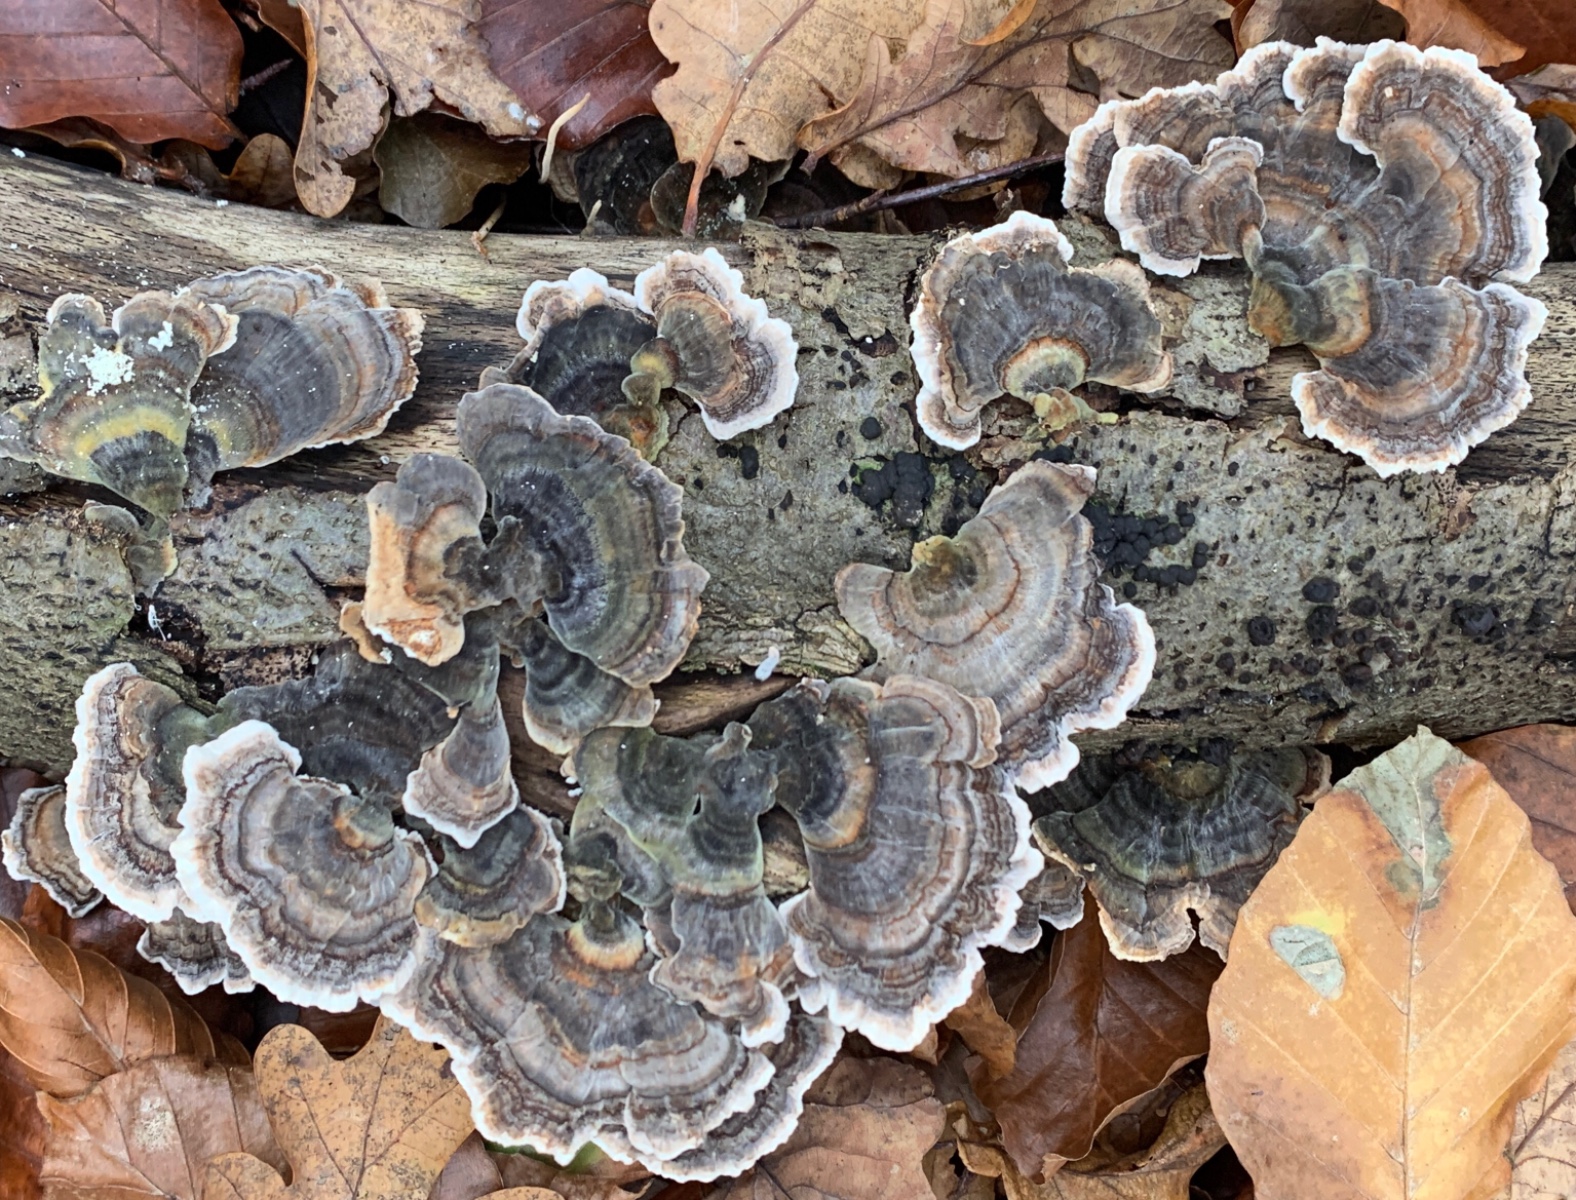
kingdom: Fungi
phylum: Basidiomycota
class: Agaricomycetes
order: Polyporales
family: Polyporaceae
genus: Trametes
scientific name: Trametes versicolor
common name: broget læderporesvamp
